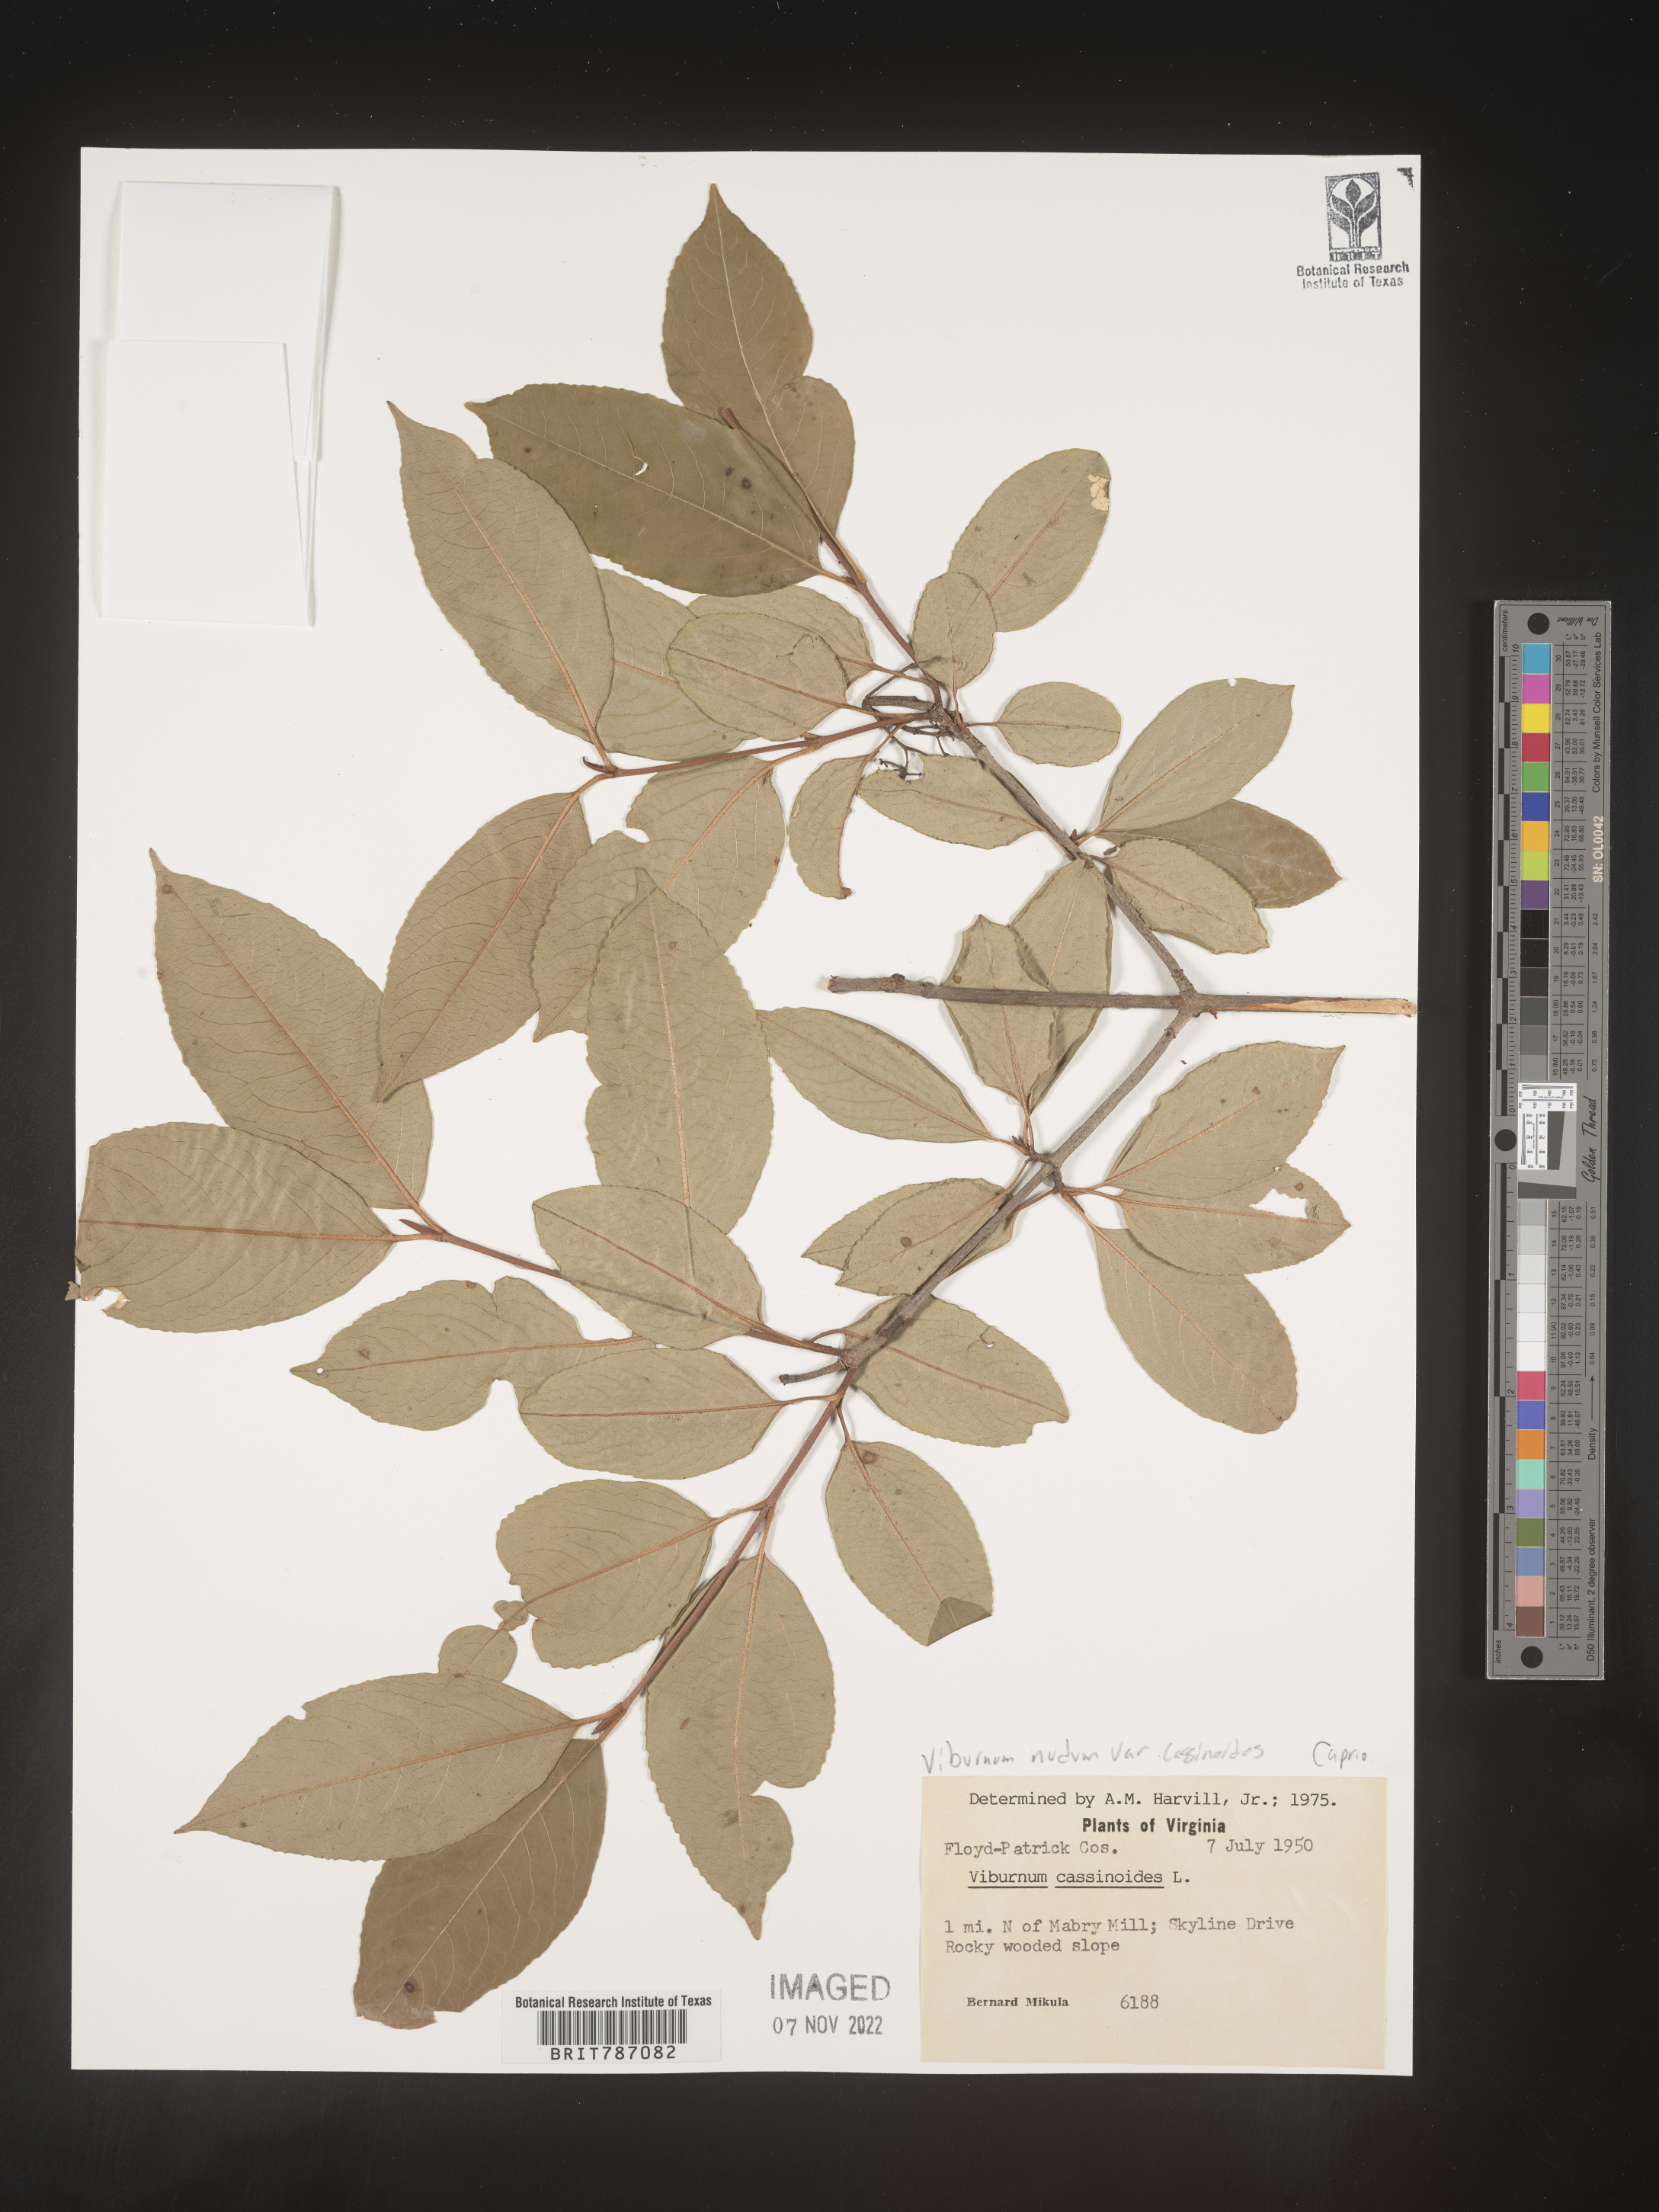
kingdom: Plantae
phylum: Tracheophyta
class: Magnoliopsida
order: Dipsacales
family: Viburnaceae
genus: Viburnum
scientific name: Viburnum nudum
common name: Possum haw
